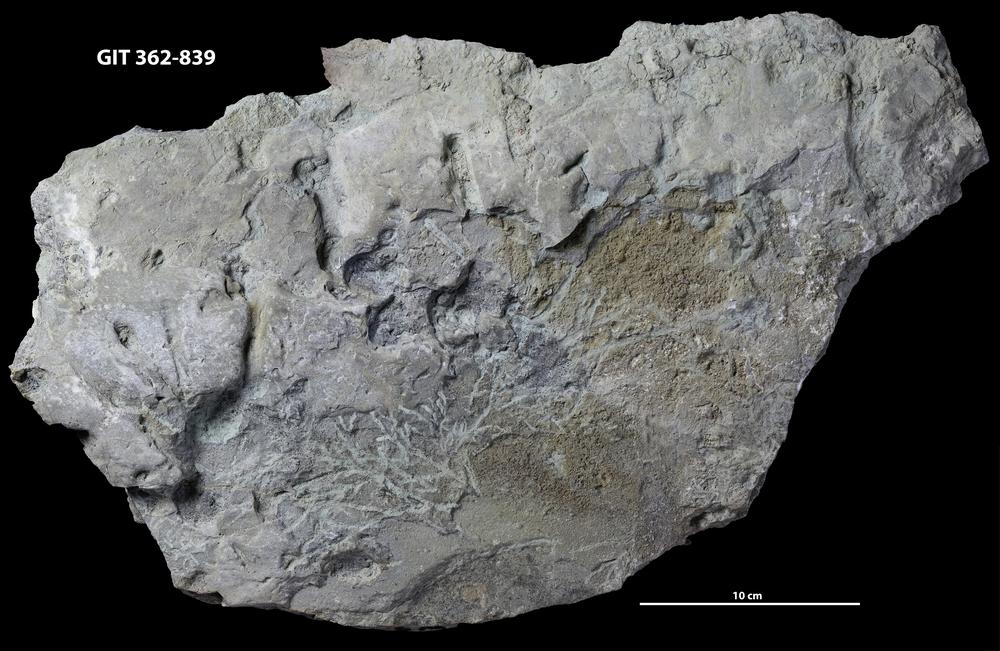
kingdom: Animalia
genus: Chondrites
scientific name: Chondrites
